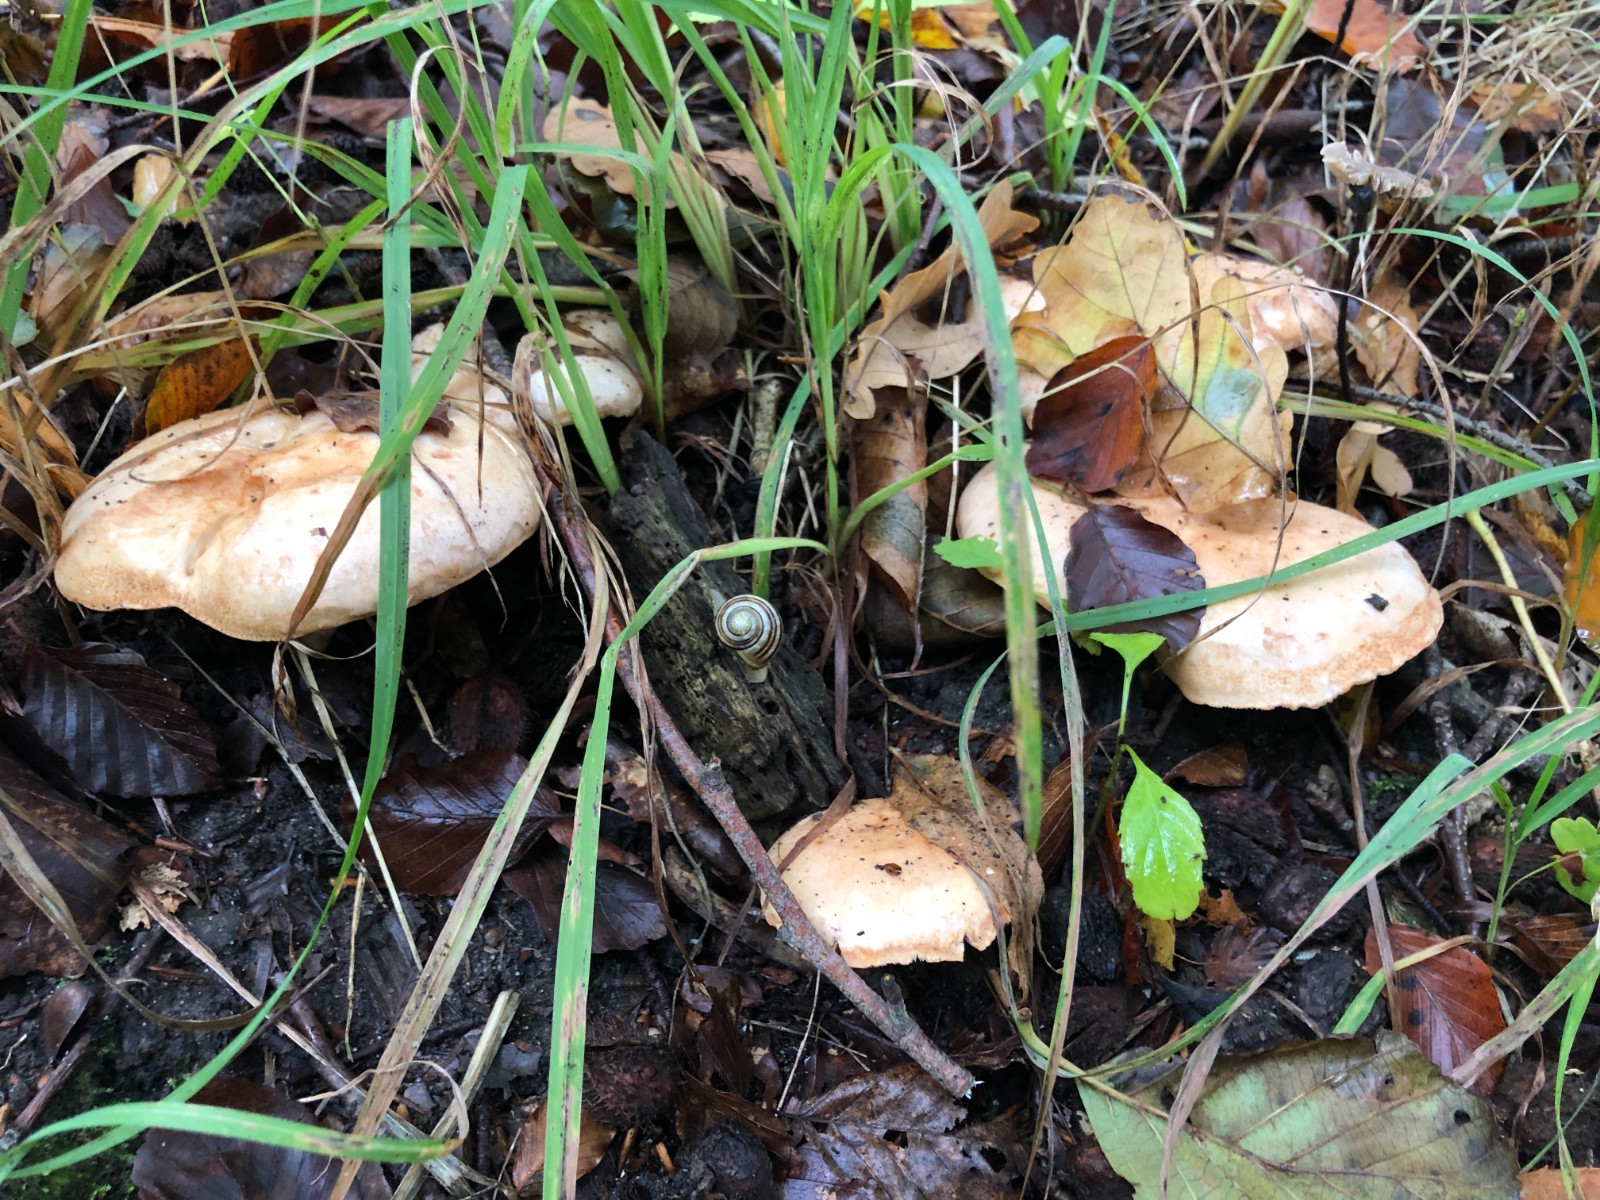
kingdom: Fungi
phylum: Basidiomycota
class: Agaricomycetes
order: Russulales
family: Russulaceae
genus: Lactarius
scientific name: Lactarius pallidus
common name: bleg mælkehat
